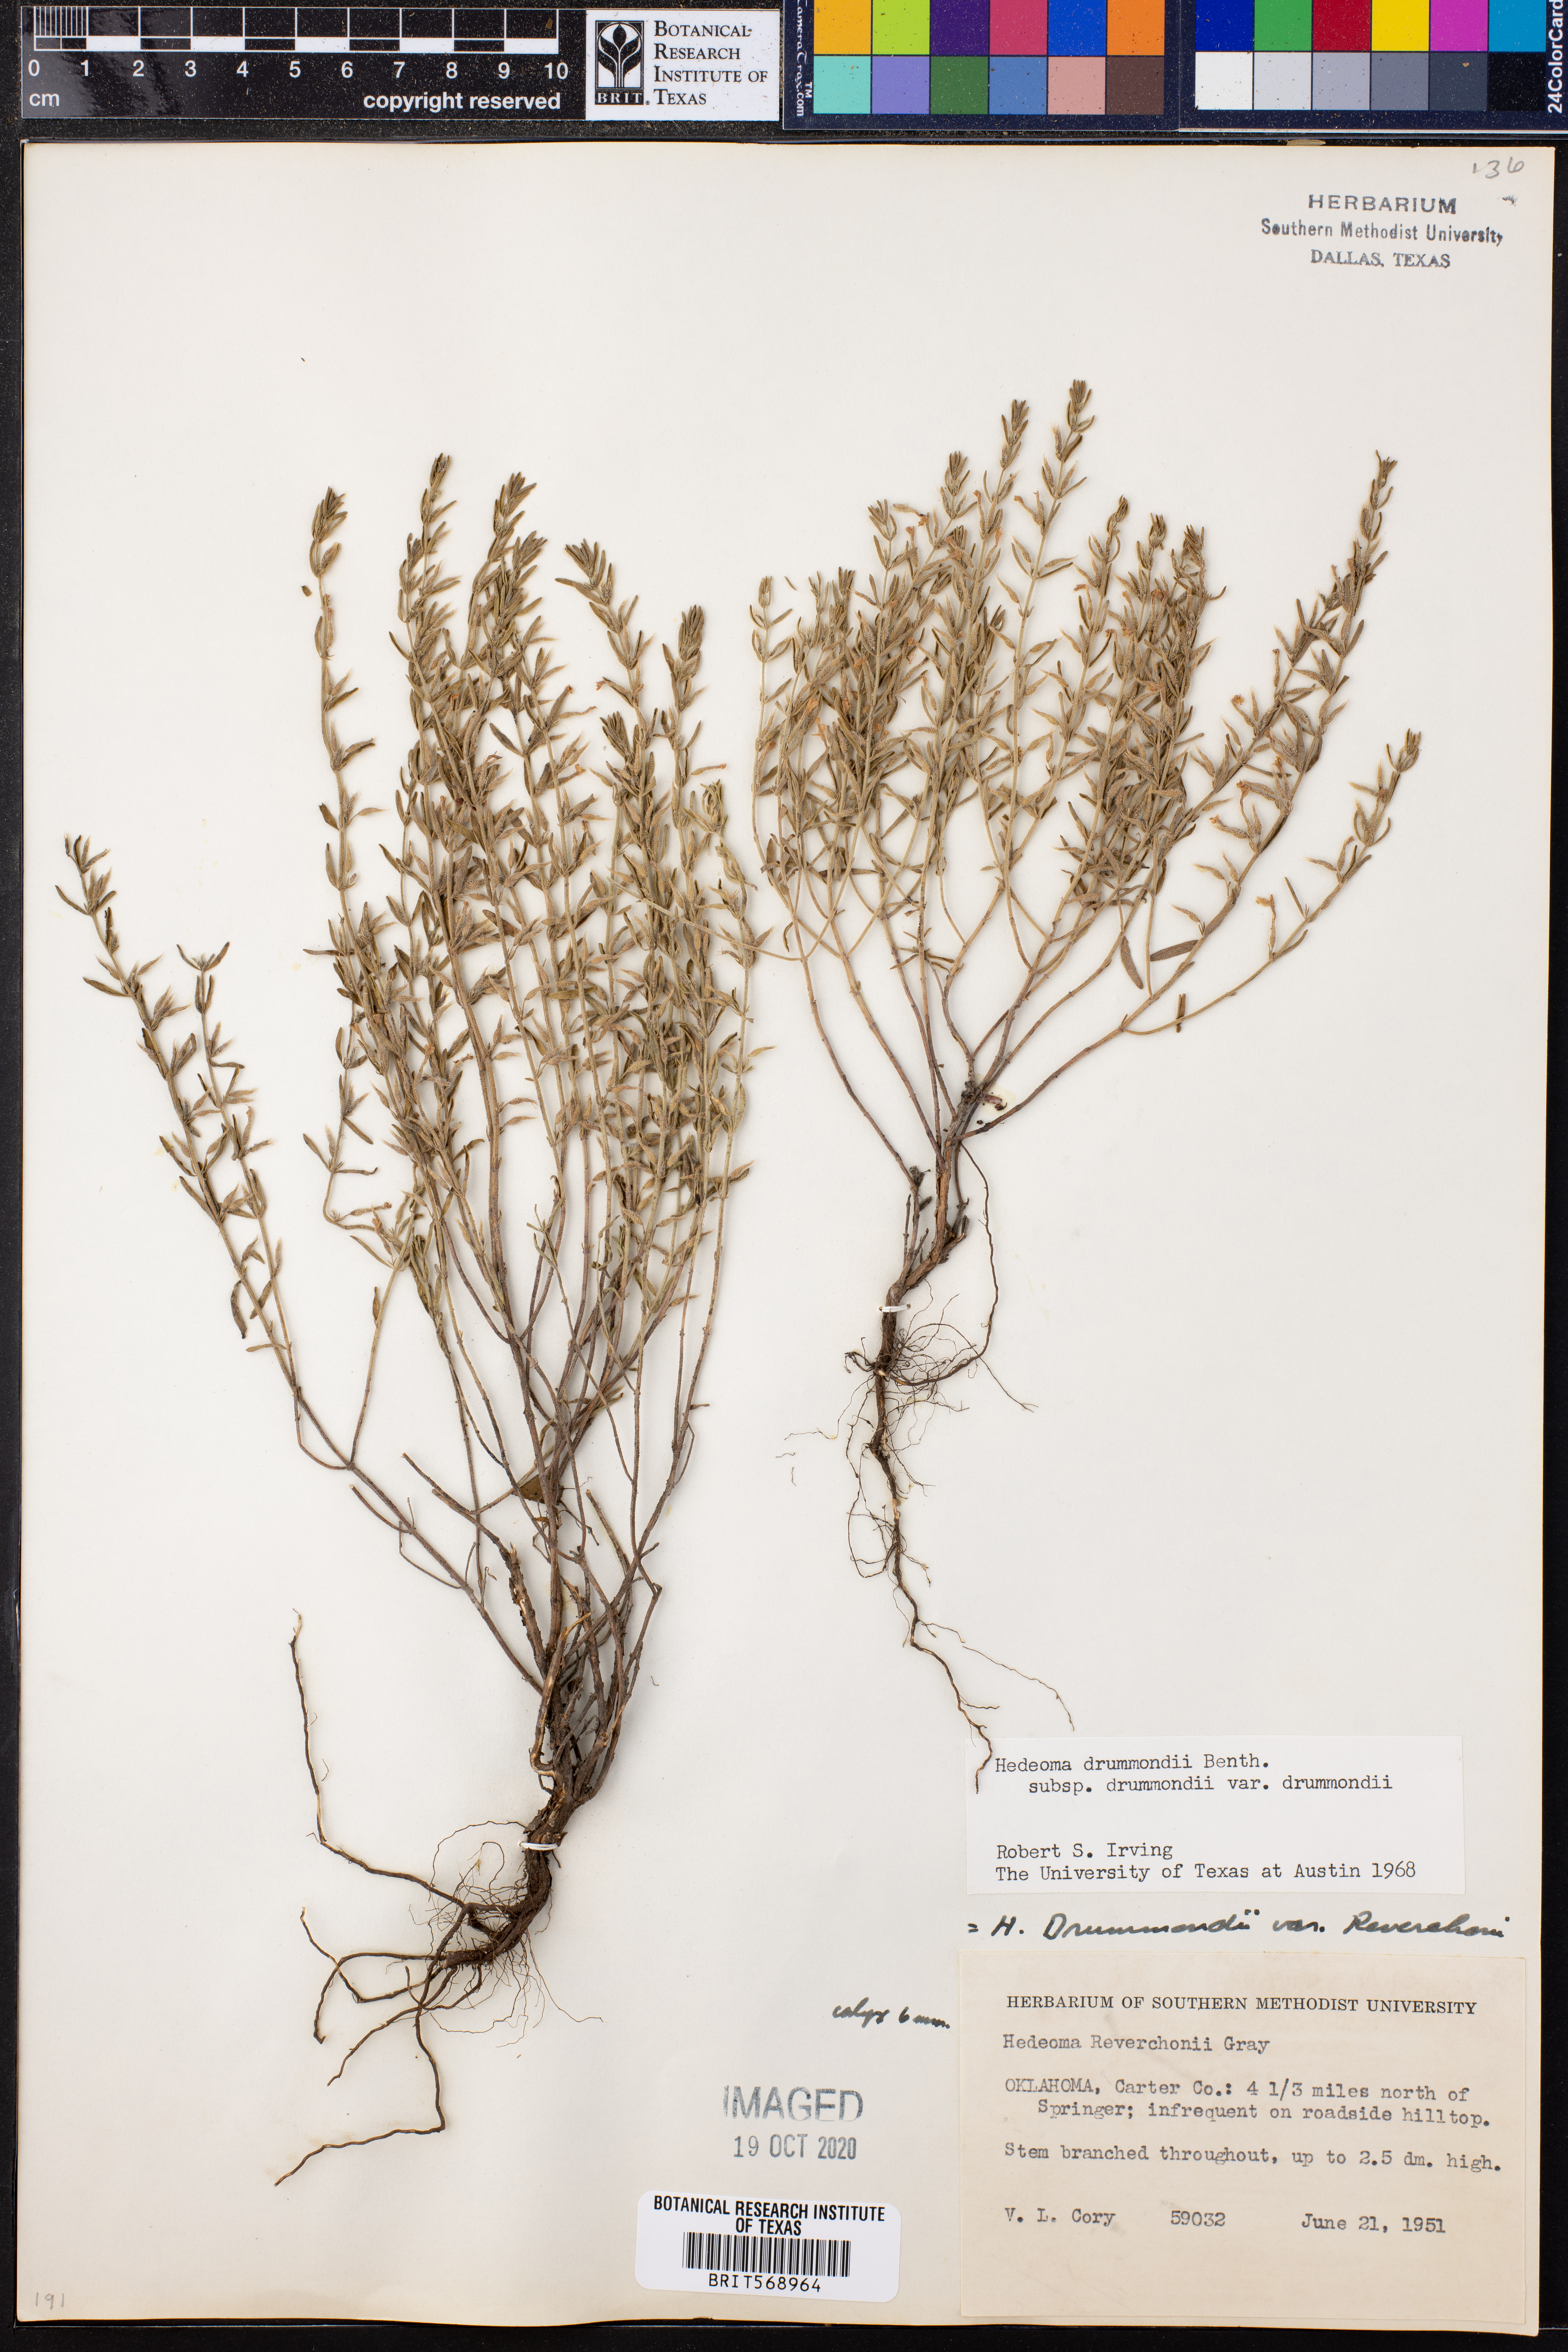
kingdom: Plantae
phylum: Tracheophyta
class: Magnoliopsida
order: Lamiales
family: Lamiaceae
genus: Hedeoma
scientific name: Hedeoma drummondii
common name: New mexico pennyroyal
